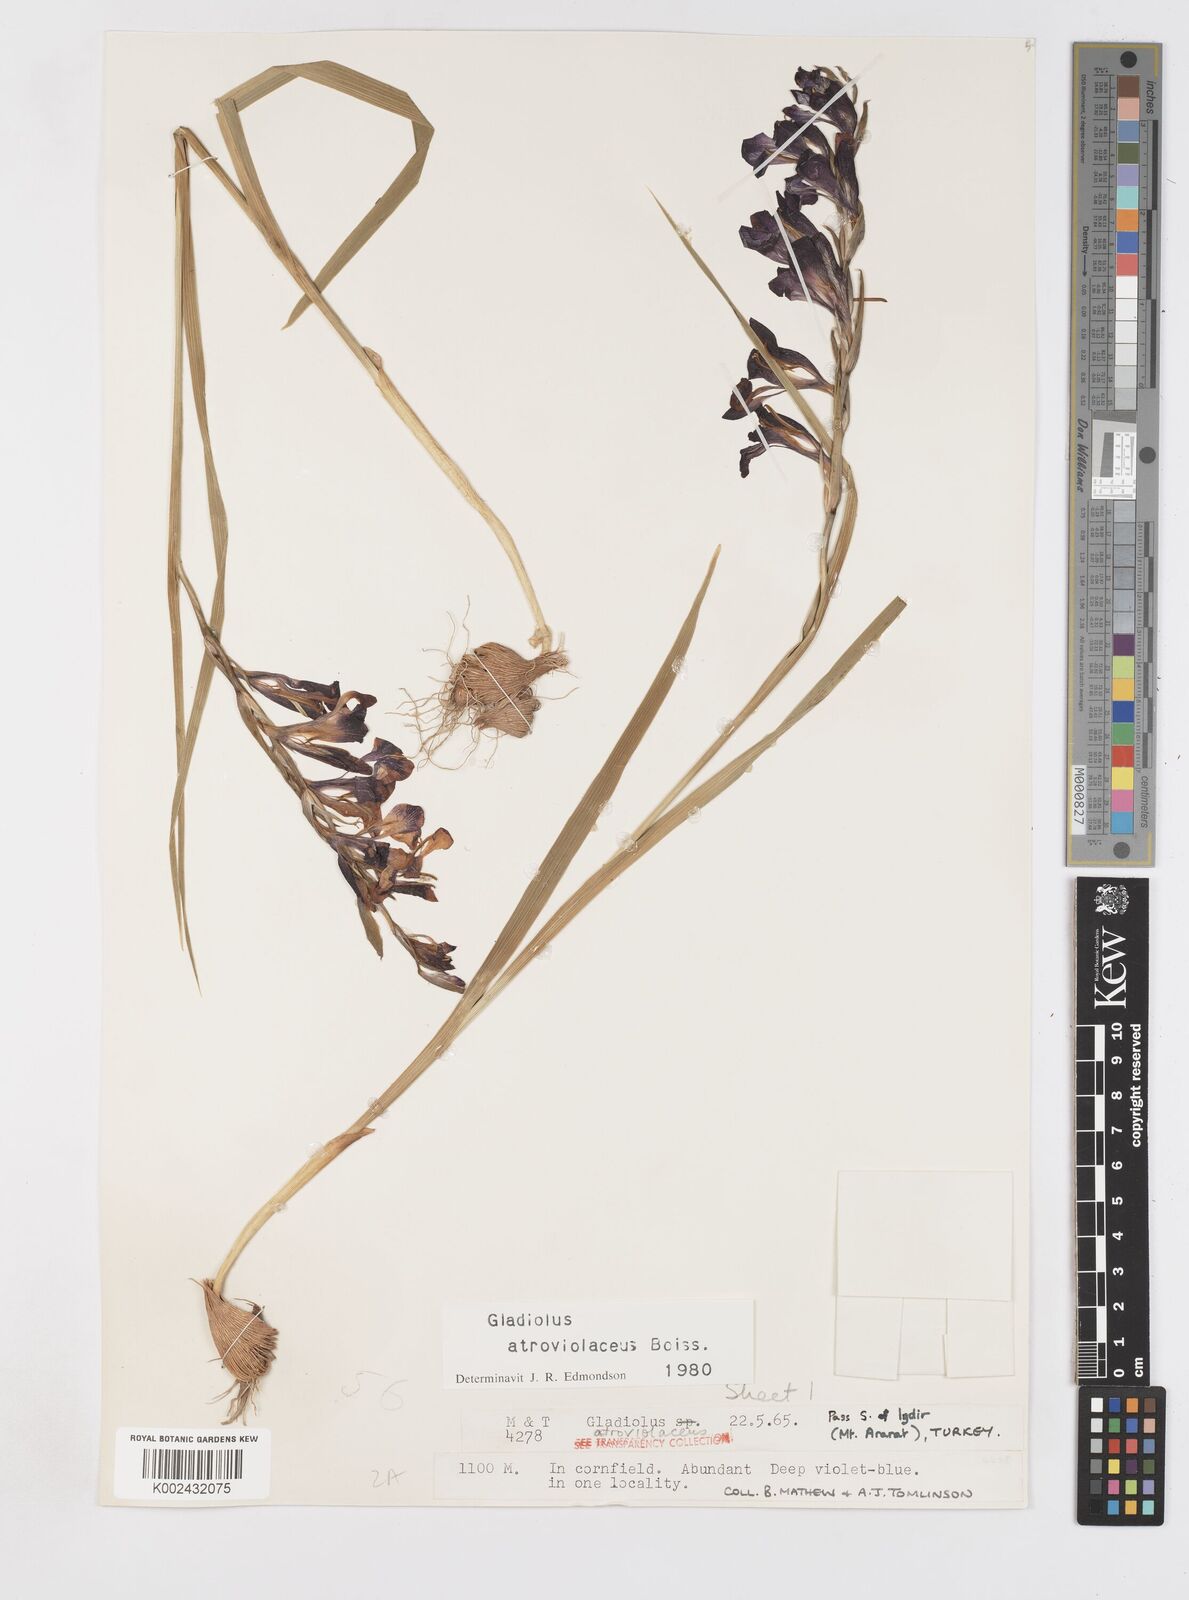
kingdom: Plantae
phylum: Tracheophyta
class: Liliopsida
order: Asparagales
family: Iridaceae
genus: Gladiolus
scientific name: Gladiolus atroviolaceus
